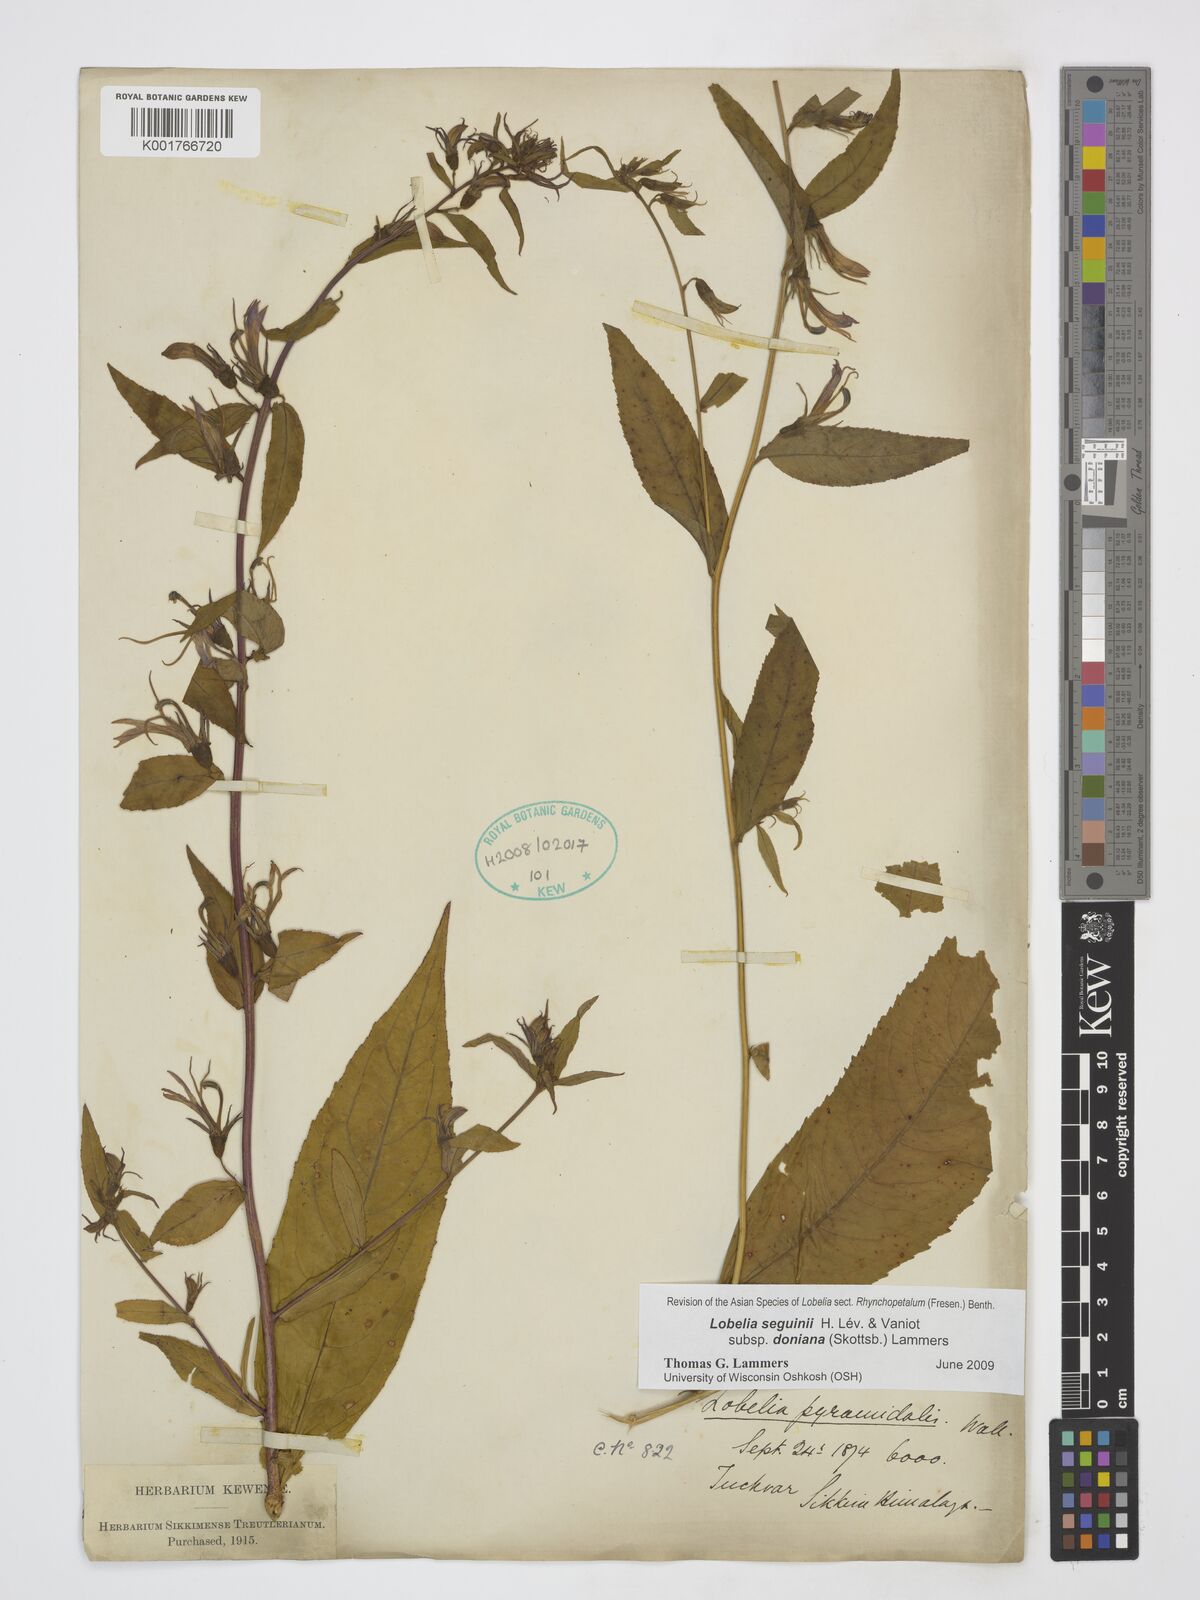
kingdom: Plantae
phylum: Tracheophyta
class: Magnoliopsida
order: Asterales
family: Campanulaceae
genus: Lobelia
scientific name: Lobelia seguinii
